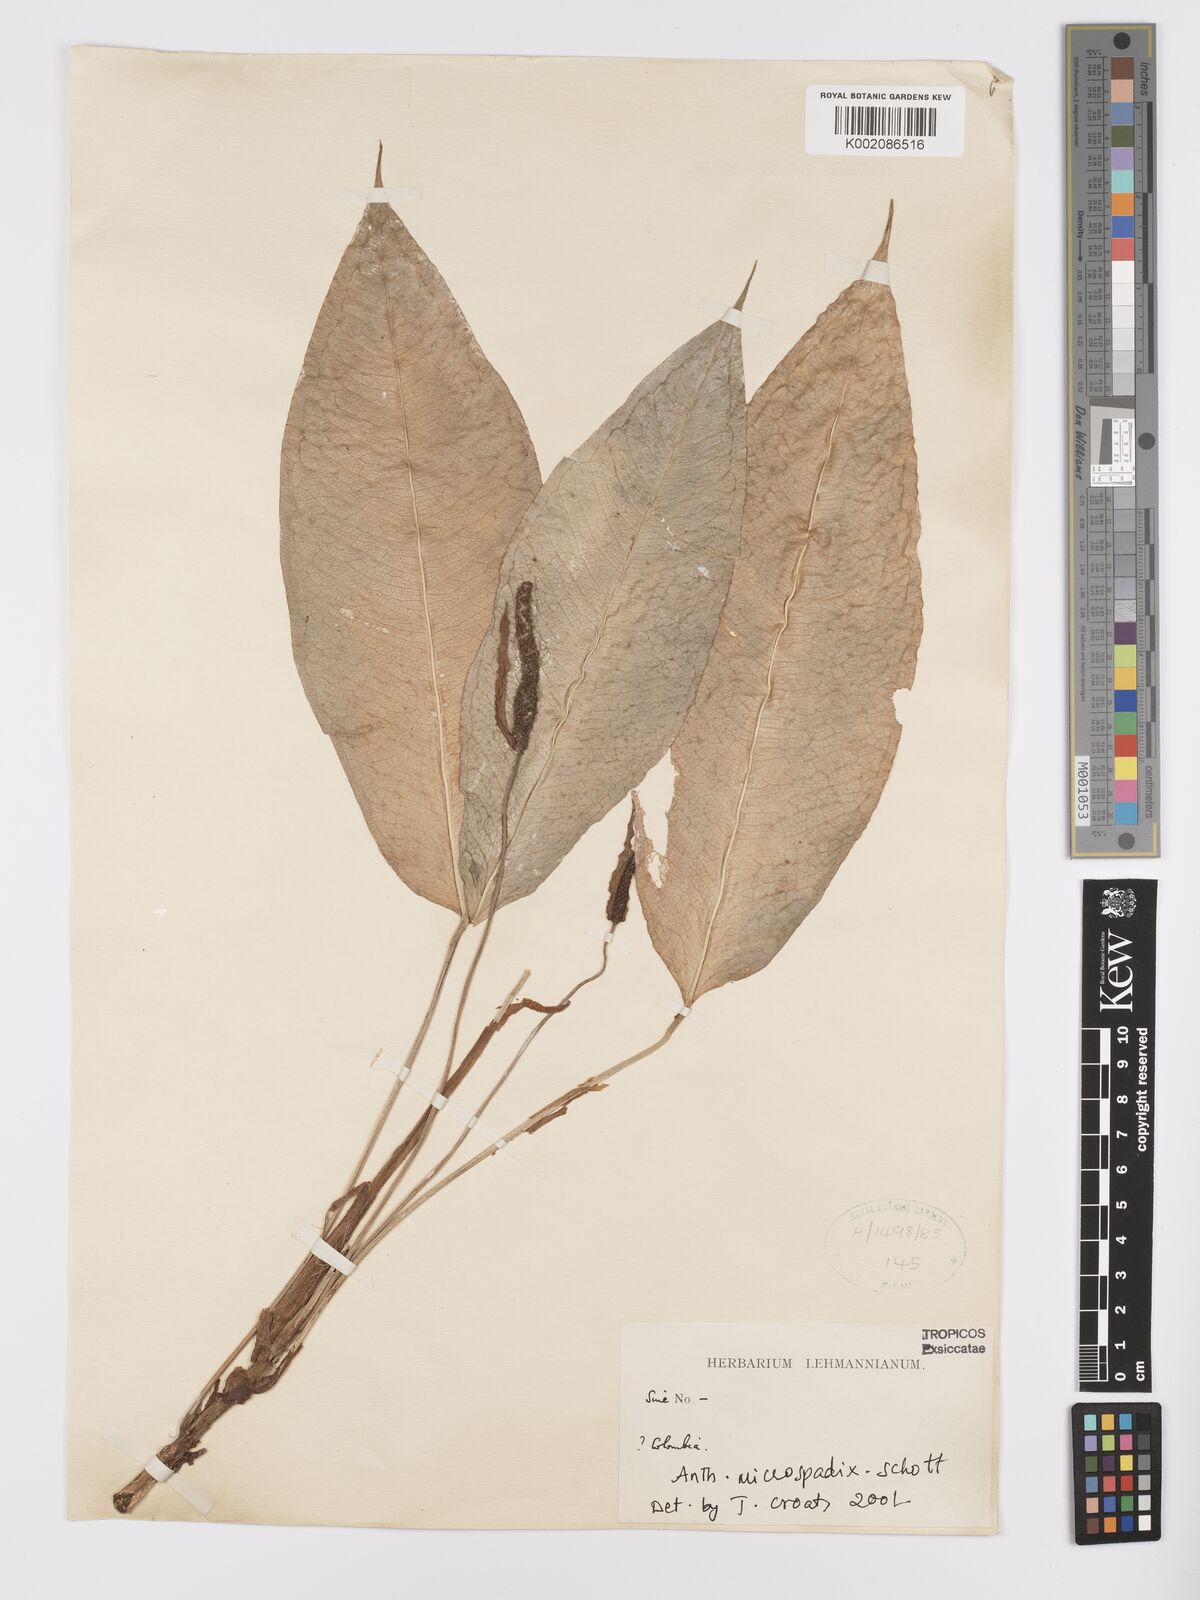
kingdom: Plantae
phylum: Tracheophyta
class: Liliopsida
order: Alismatales
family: Araceae
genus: Anthurium
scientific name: Anthurium microspadix
